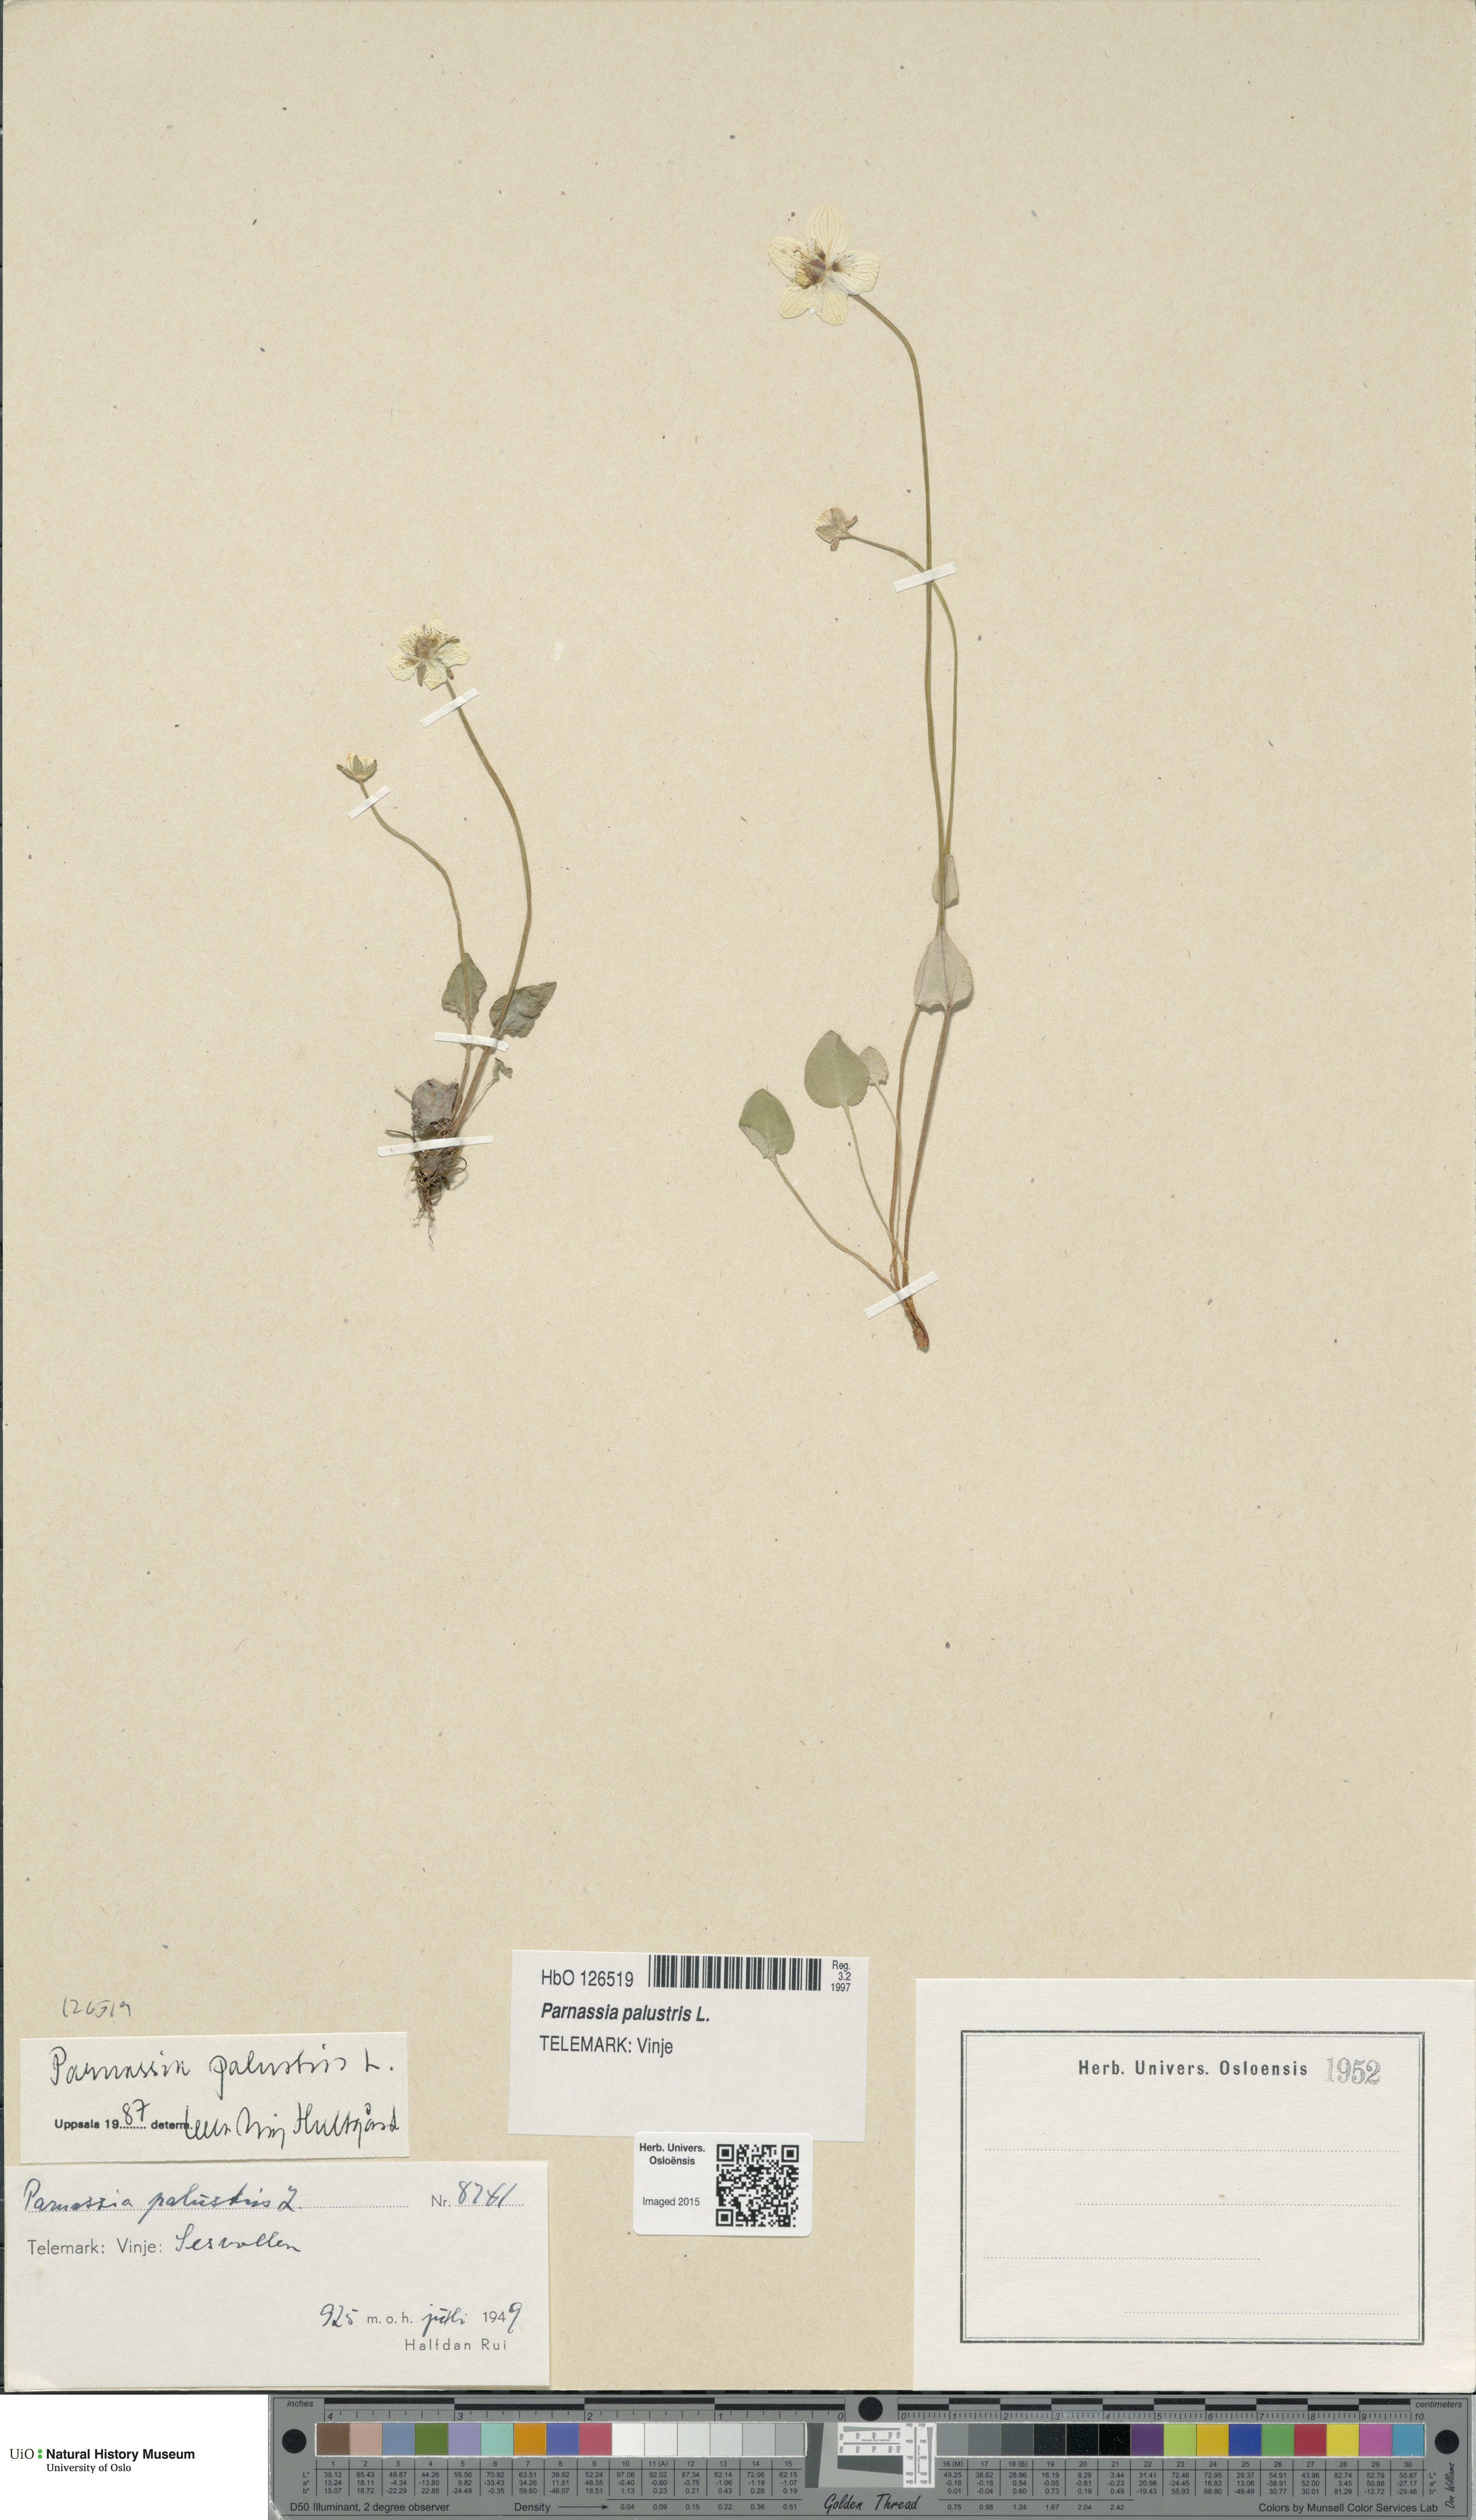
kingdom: Plantae
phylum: Tracheophyta
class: Magnoliopsida
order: Celastrales
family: Parnassiaceae
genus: Parnassia
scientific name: Parnassia palustris
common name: Grass-of-parnassus
